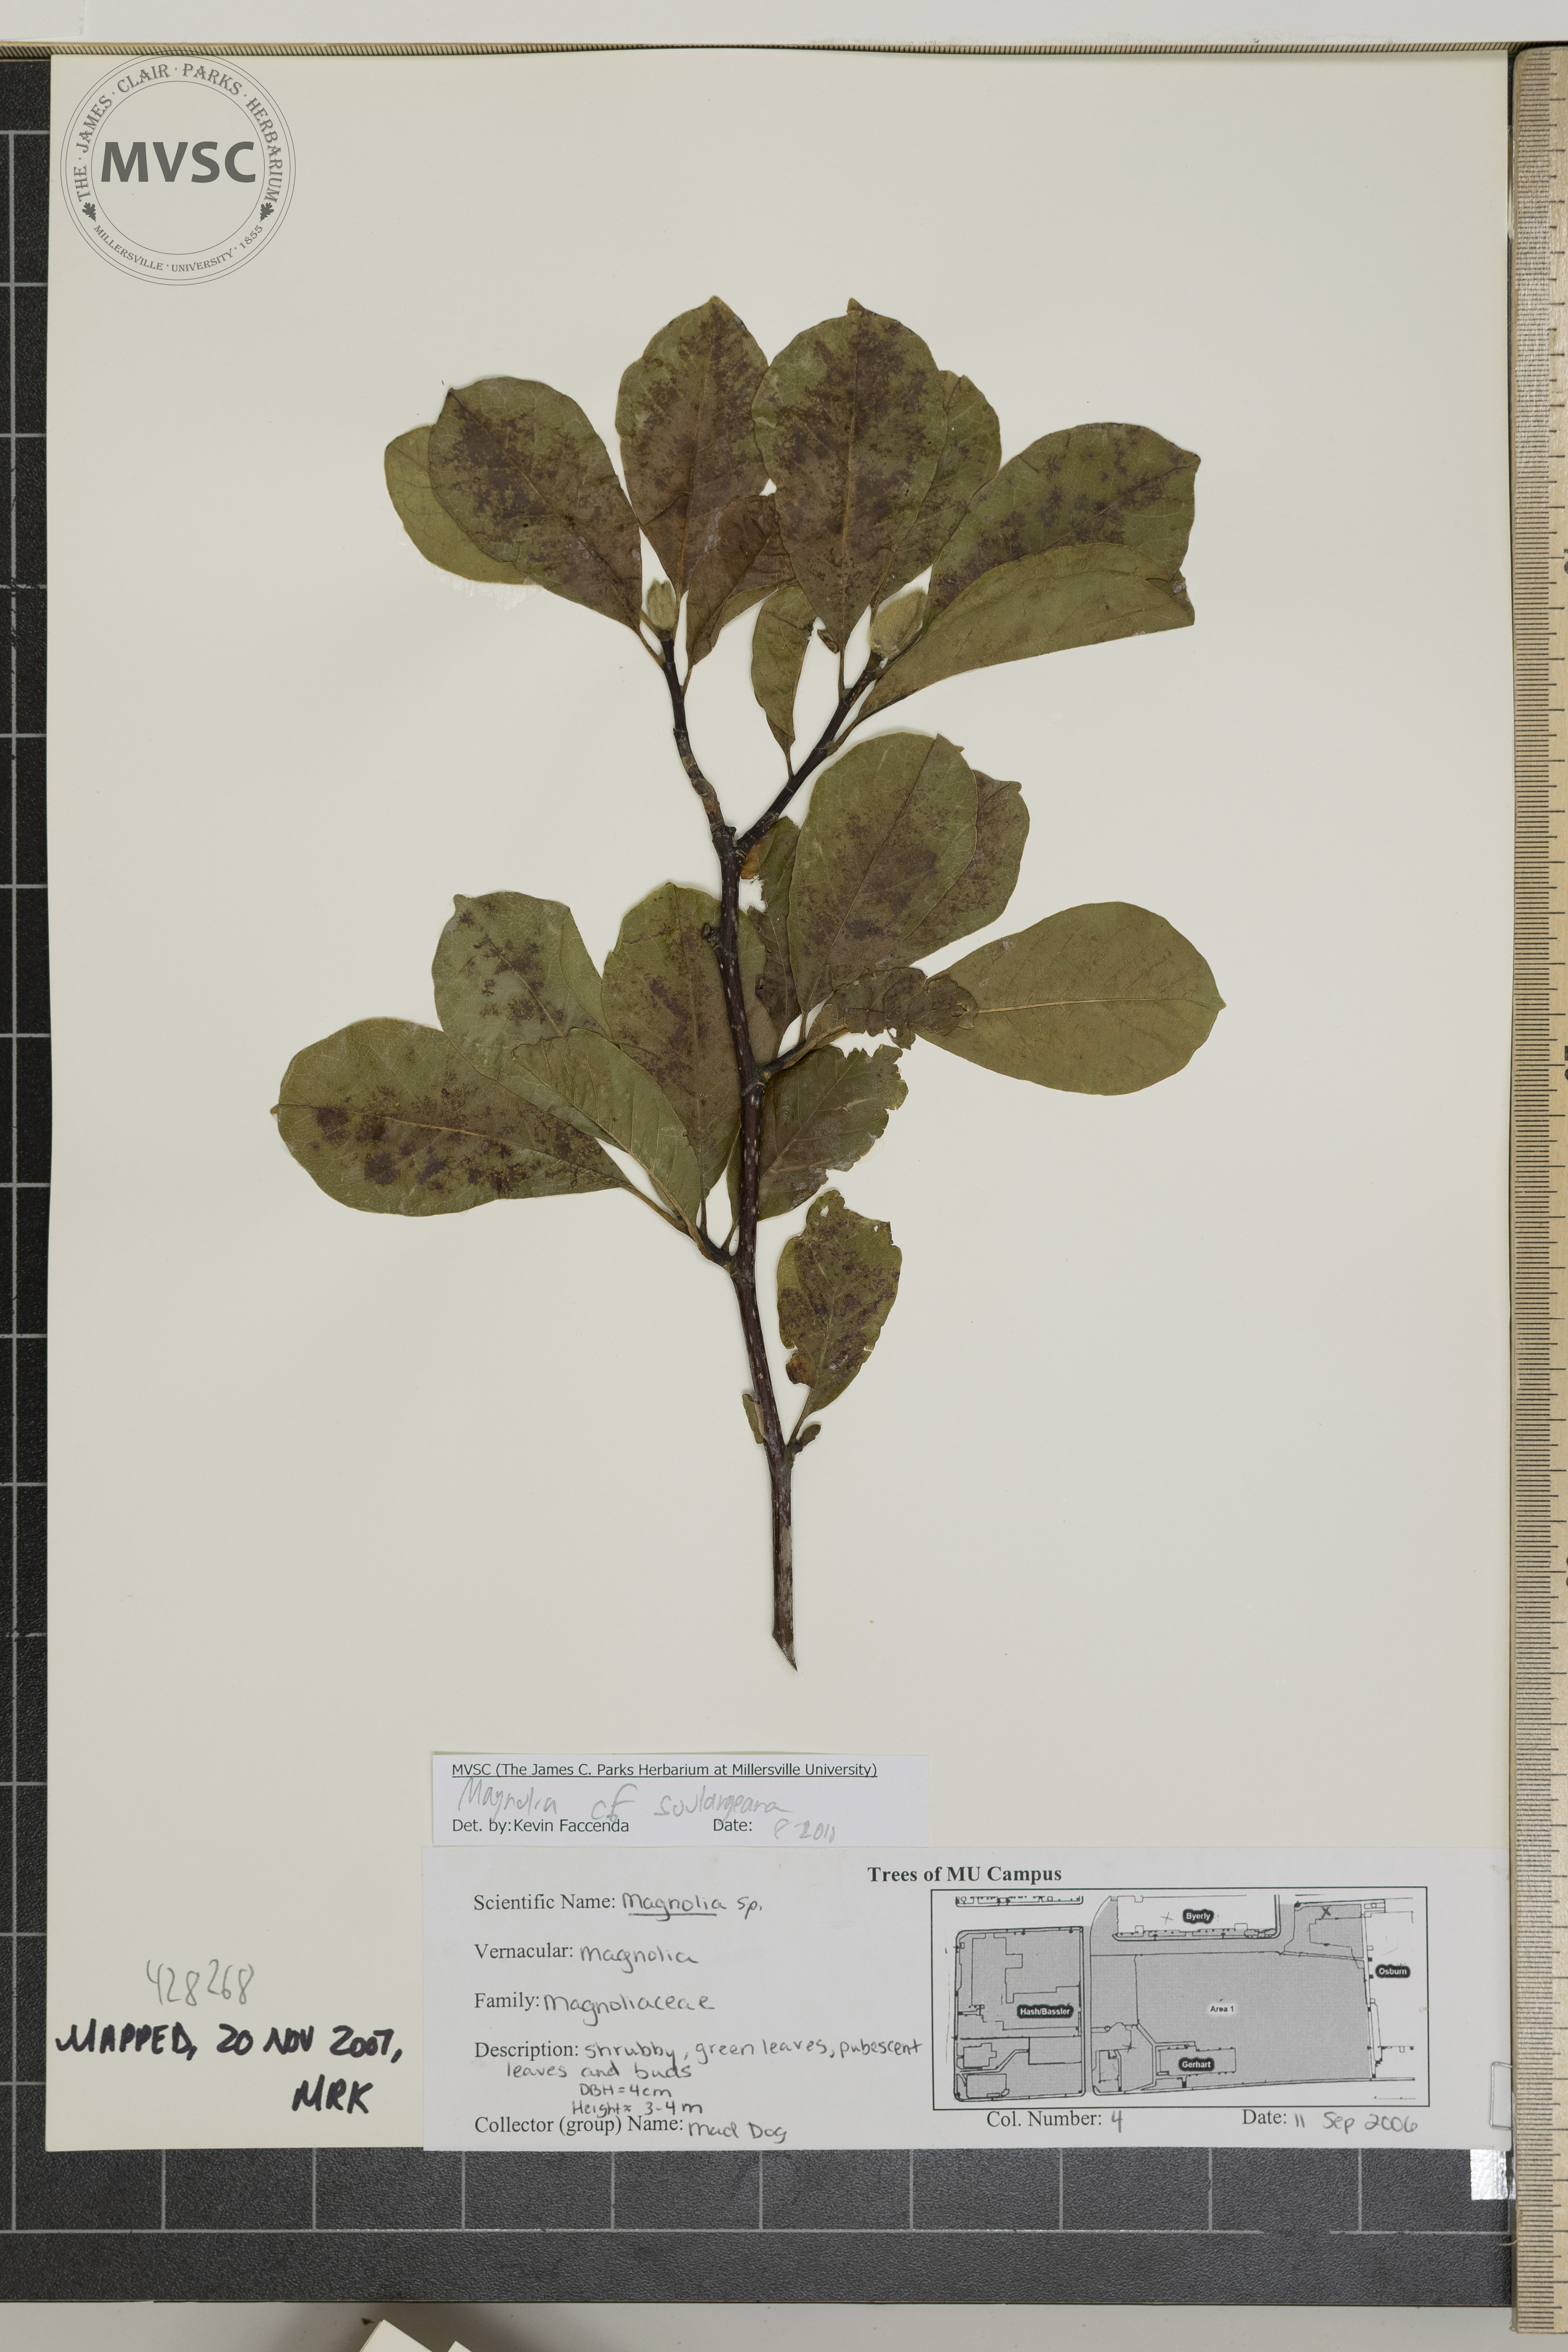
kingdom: Plantae
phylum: Tracheophyta
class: Magnoliopsida
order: Magnoliales
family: Magnoliaceae
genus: Magnolia
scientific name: Magnolia soulangeana
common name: Magnolia
